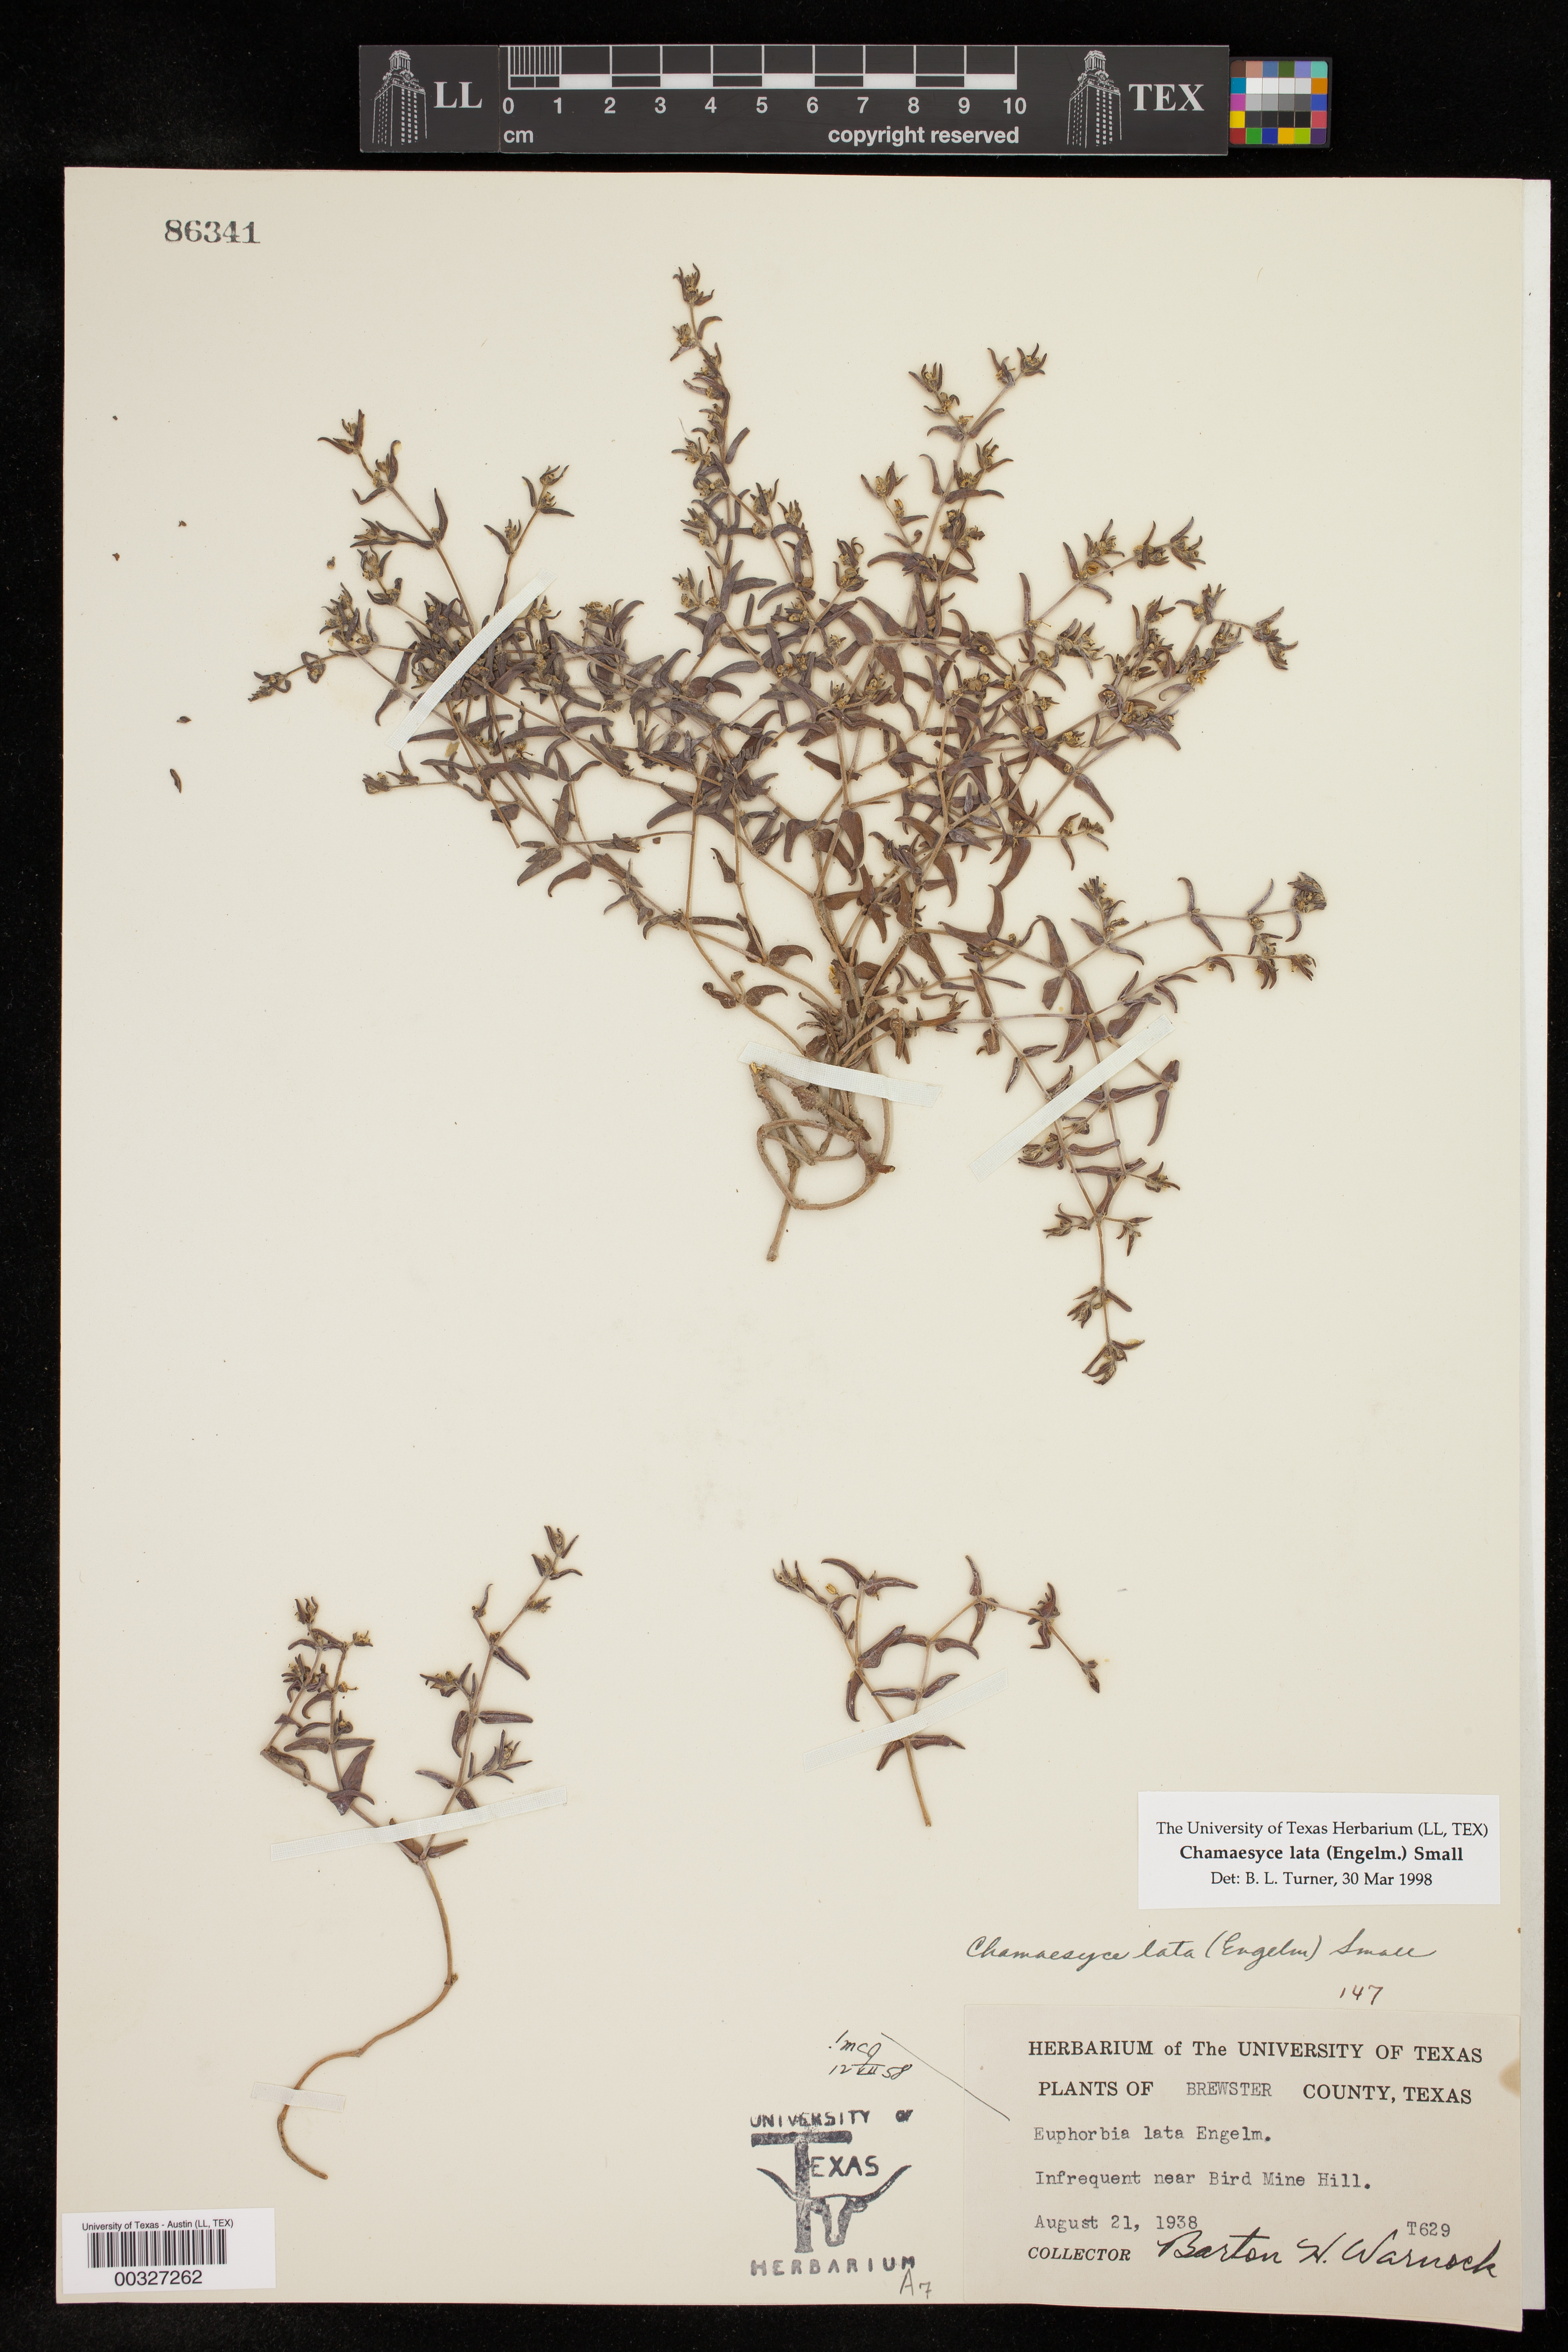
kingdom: Plantae
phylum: Tracheophyta
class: Magnoliopsida
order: Malpighiales
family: Euphorbiaceae
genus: Euphorbia
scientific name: Euphorbia lata
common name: Hoary euphorbia
